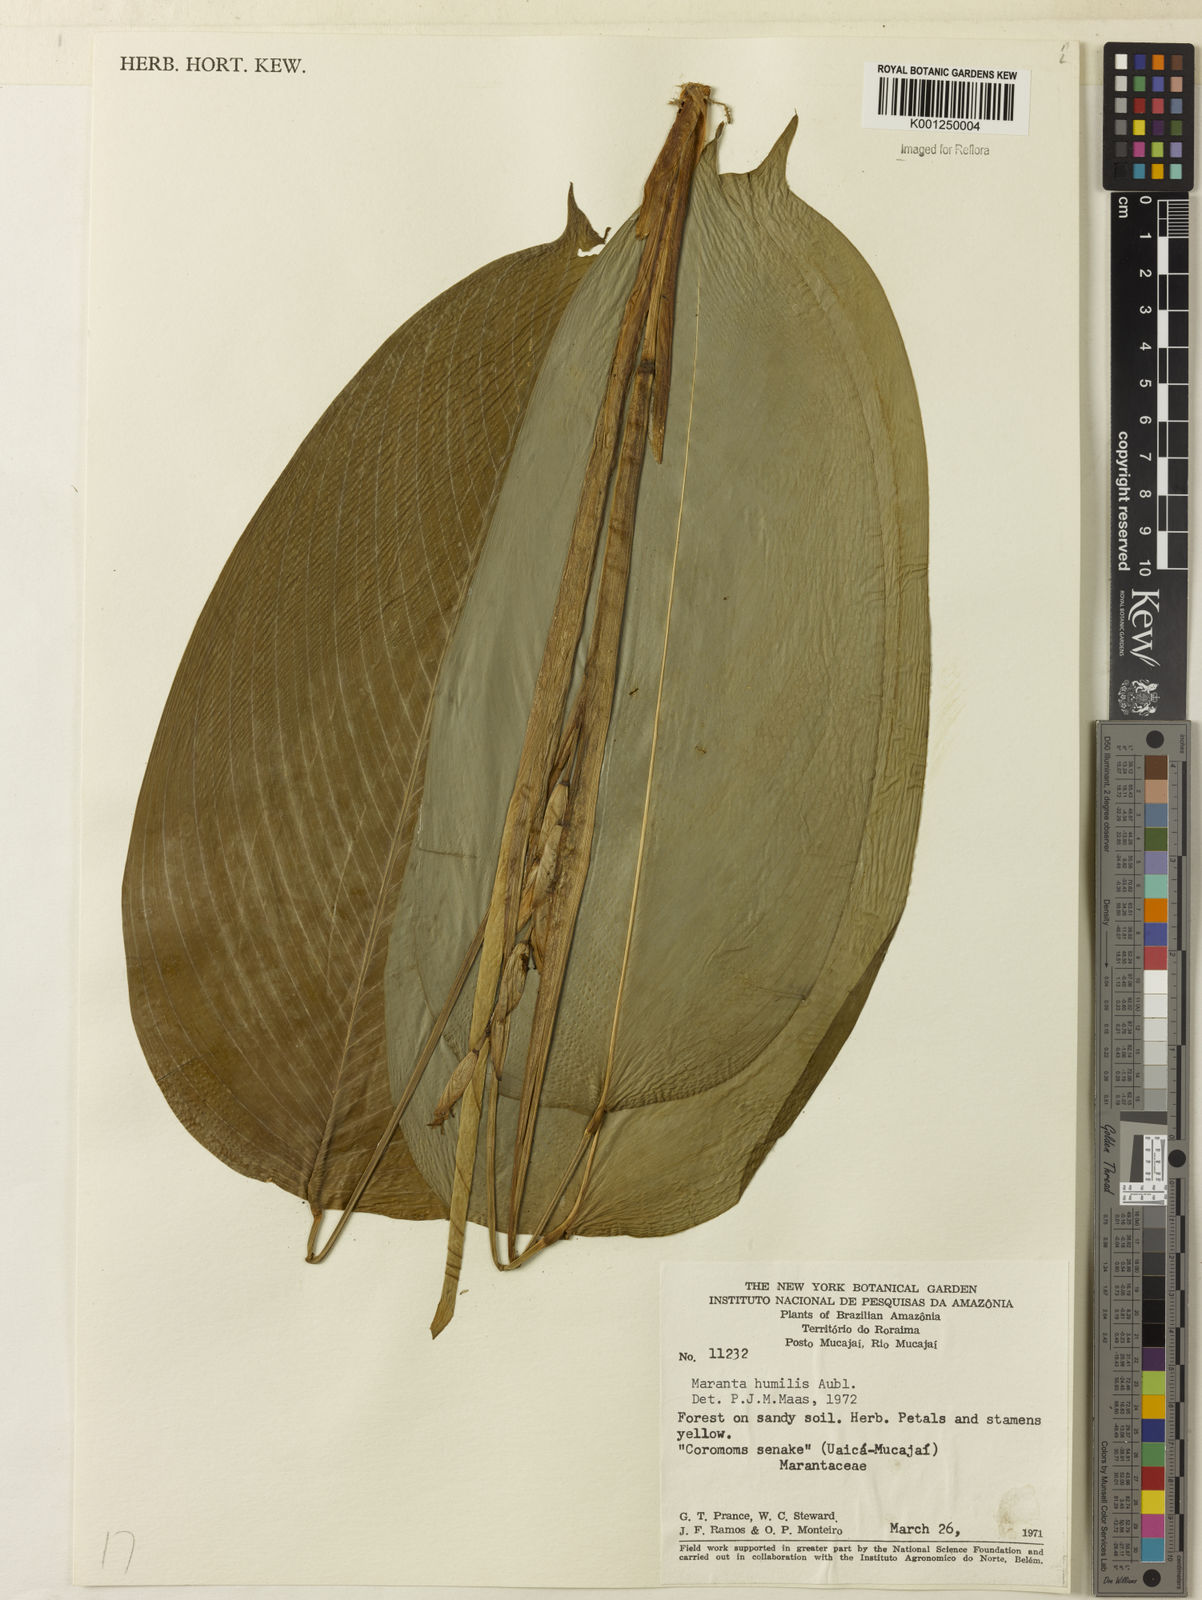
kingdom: Plantae
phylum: Tracheophyta
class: Liliopsida
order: Zingiberales
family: Marantaceae
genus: Maranta
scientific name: Maranta humilis
